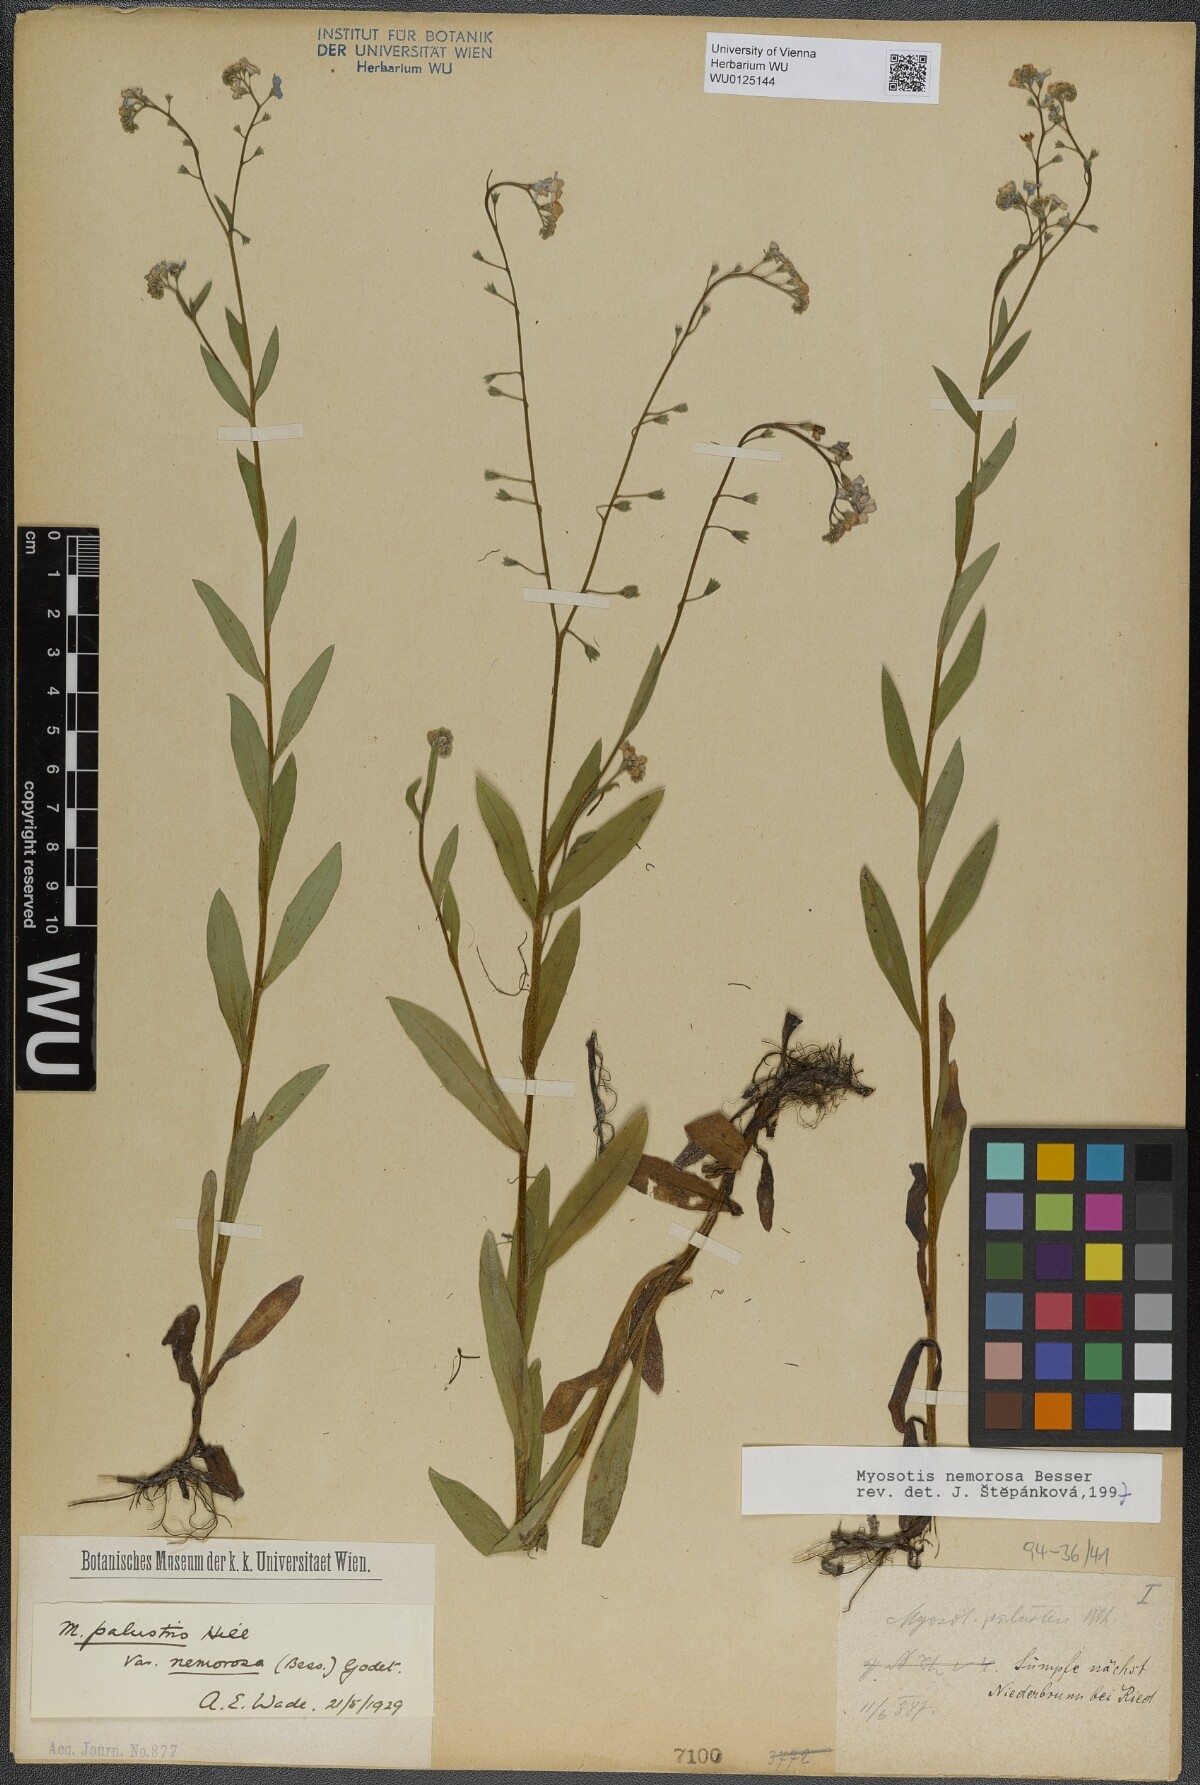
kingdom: Plantae
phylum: Tracheophyta
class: Magnoliopsida
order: Boraginales
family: Boraginaceae
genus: Myosotis
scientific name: Myosotis nemorosa
